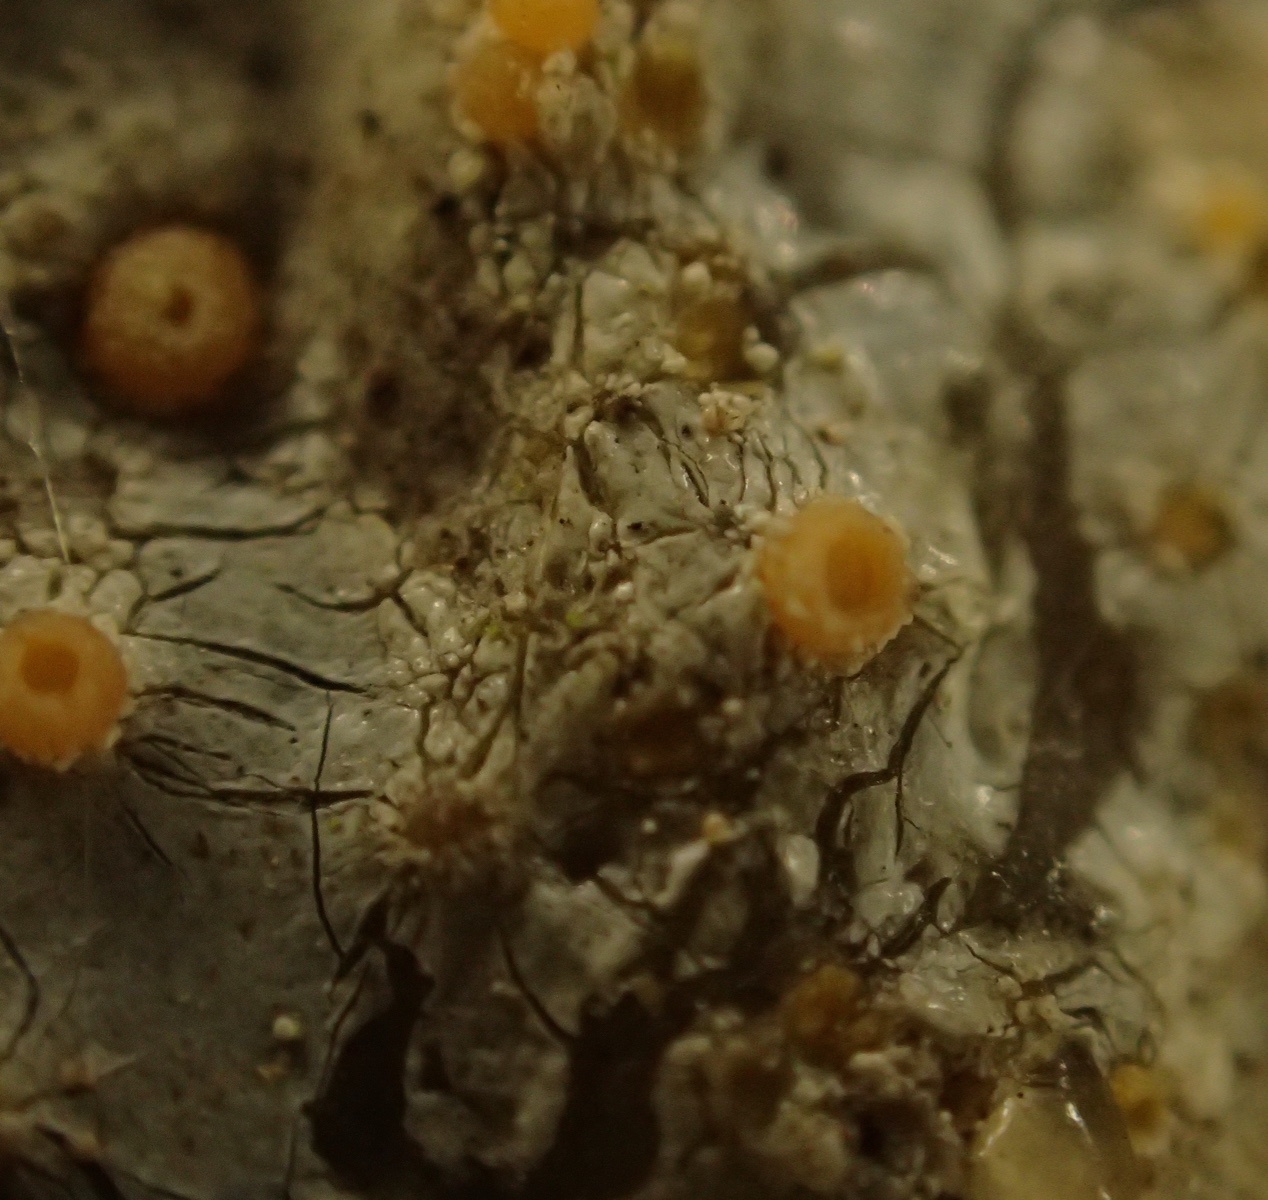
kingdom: Fungi
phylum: Ascomycota
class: Sareomycetes
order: Sareales
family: Sareaceae
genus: Sarea
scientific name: Sarea resinae
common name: orangegul harpiksskive
